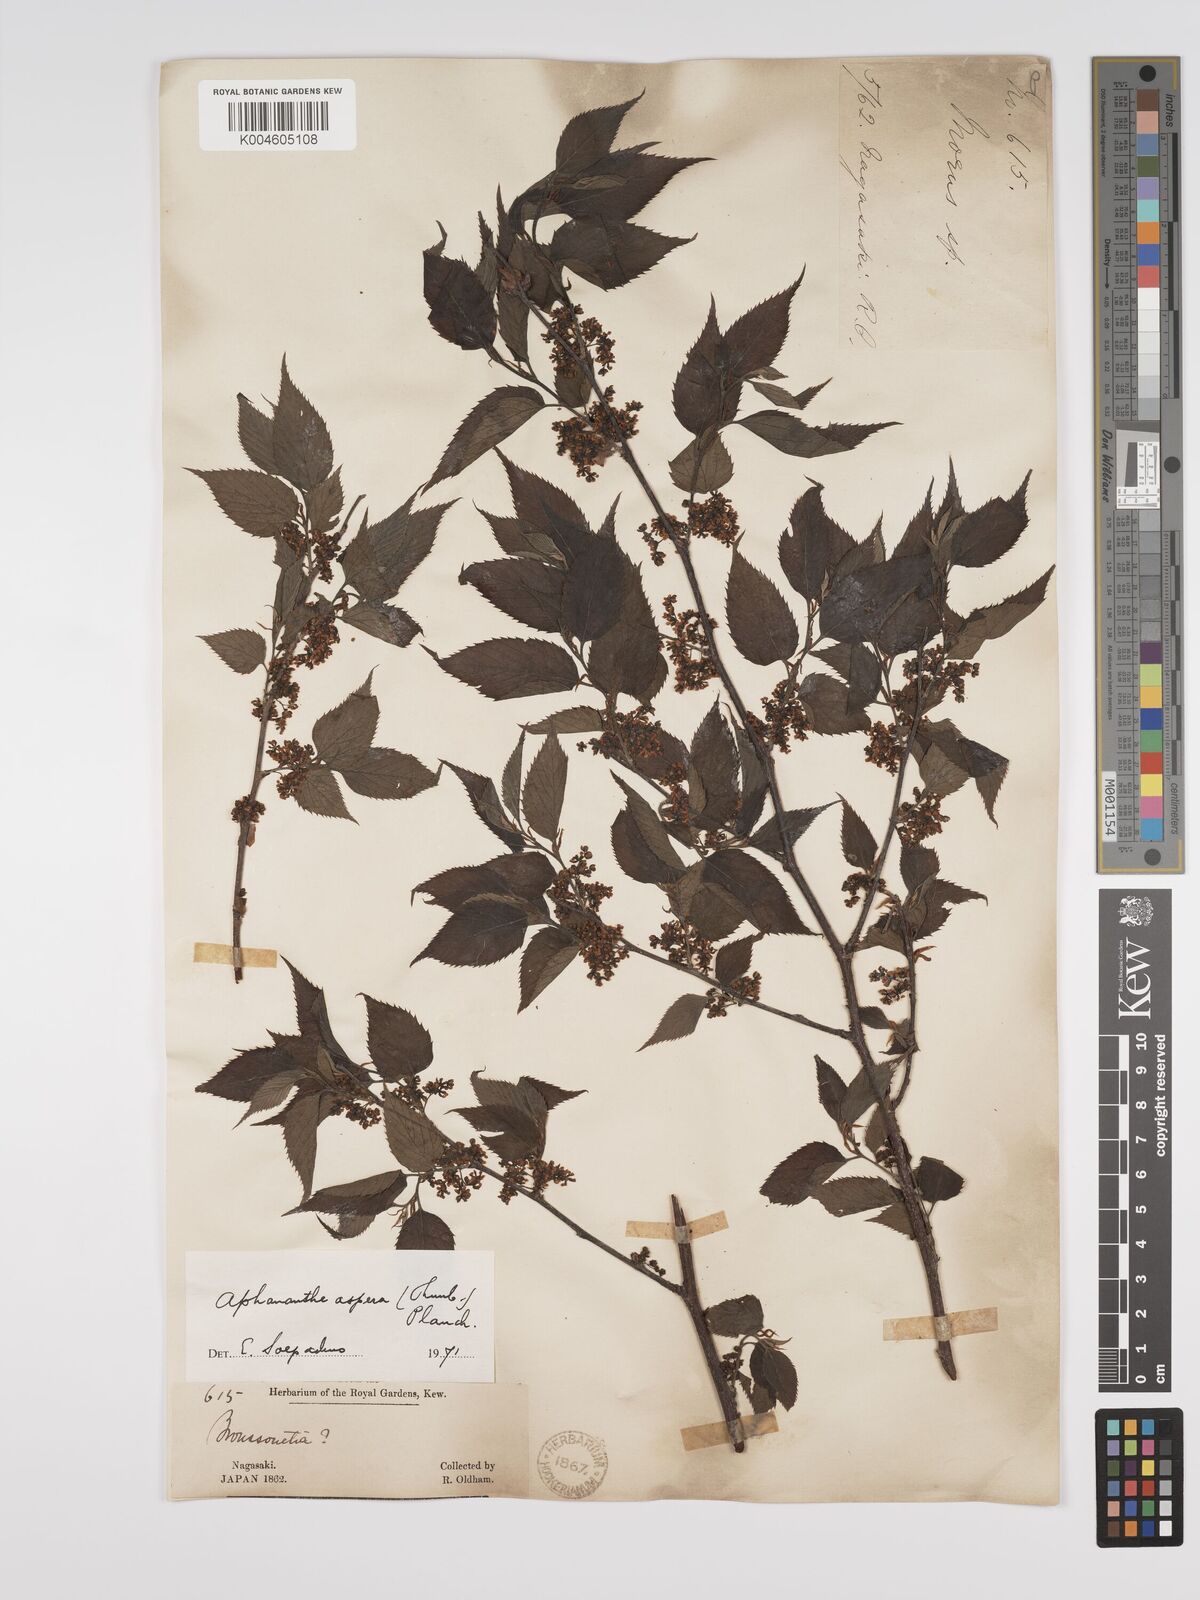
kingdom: Plantae
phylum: Tracheophyta
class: Magnoliopsida
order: Rosales
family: Cannabaceae
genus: Aphananthe
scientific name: Aphananthe aspera
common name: Mukutree
